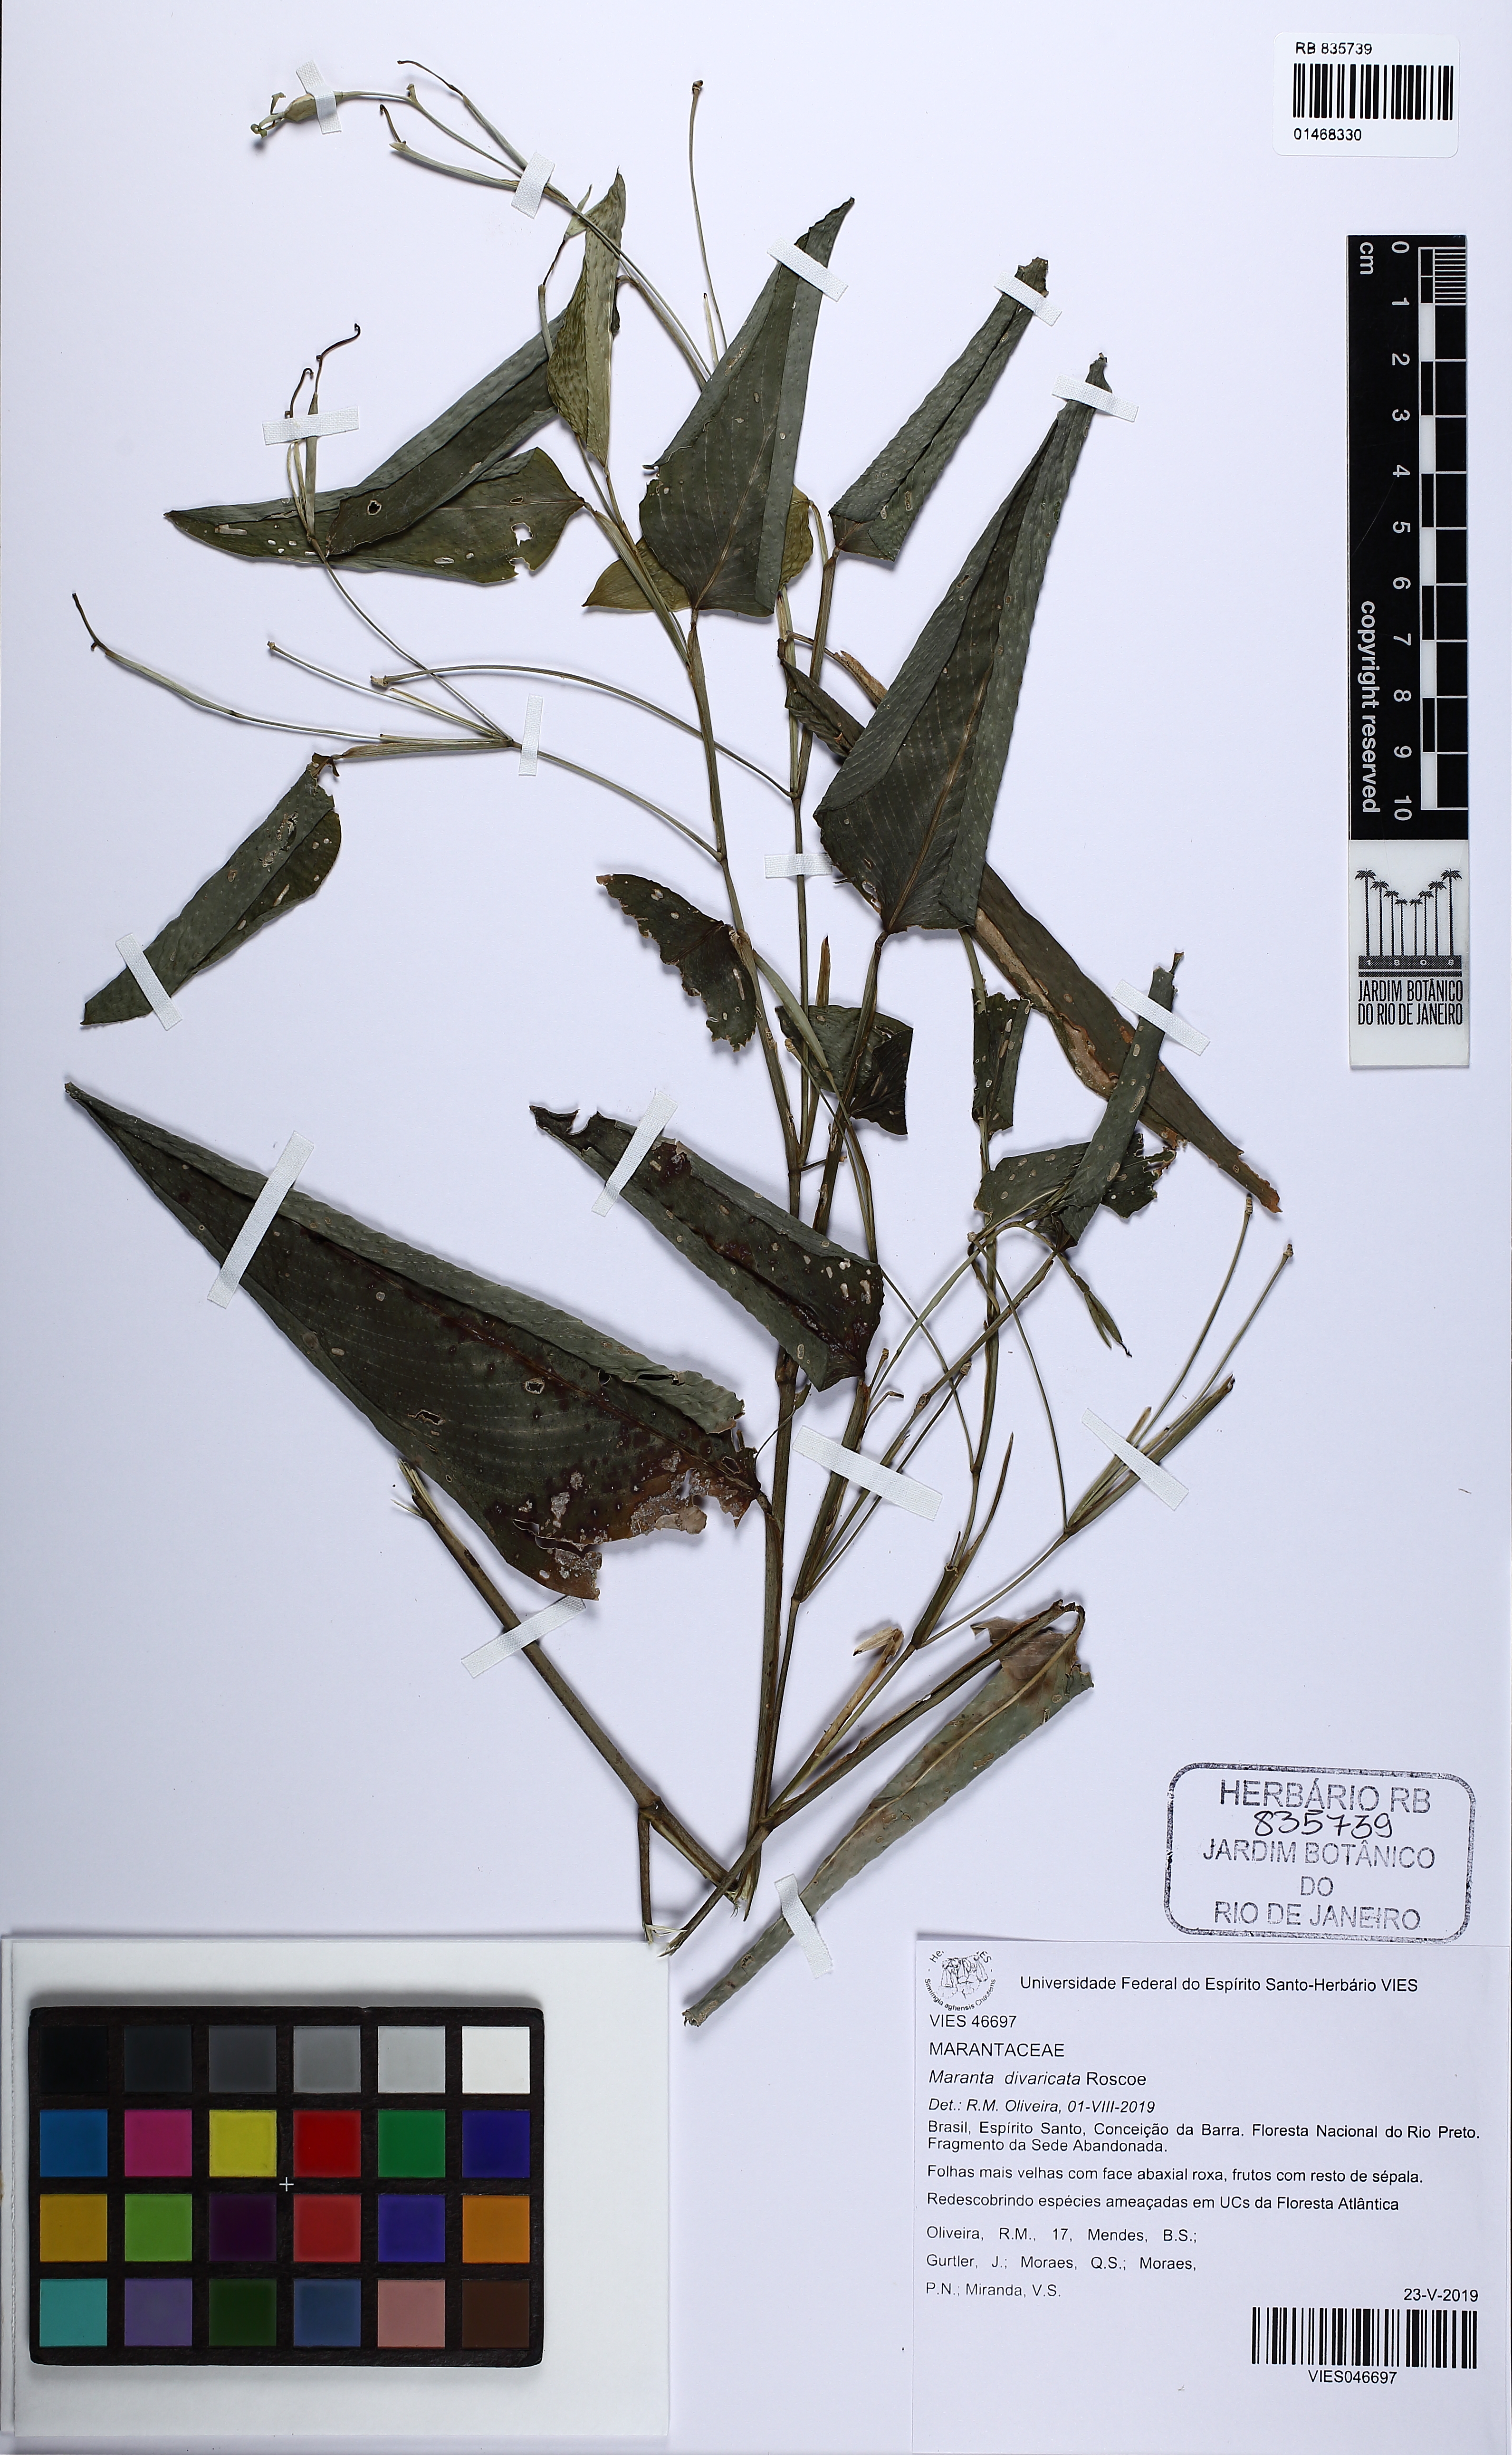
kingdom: Plantae
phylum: Tracheophyta
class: Liliopsida
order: Zingiberales
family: Marantaceae
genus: Maranta
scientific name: Maranta divaricata
